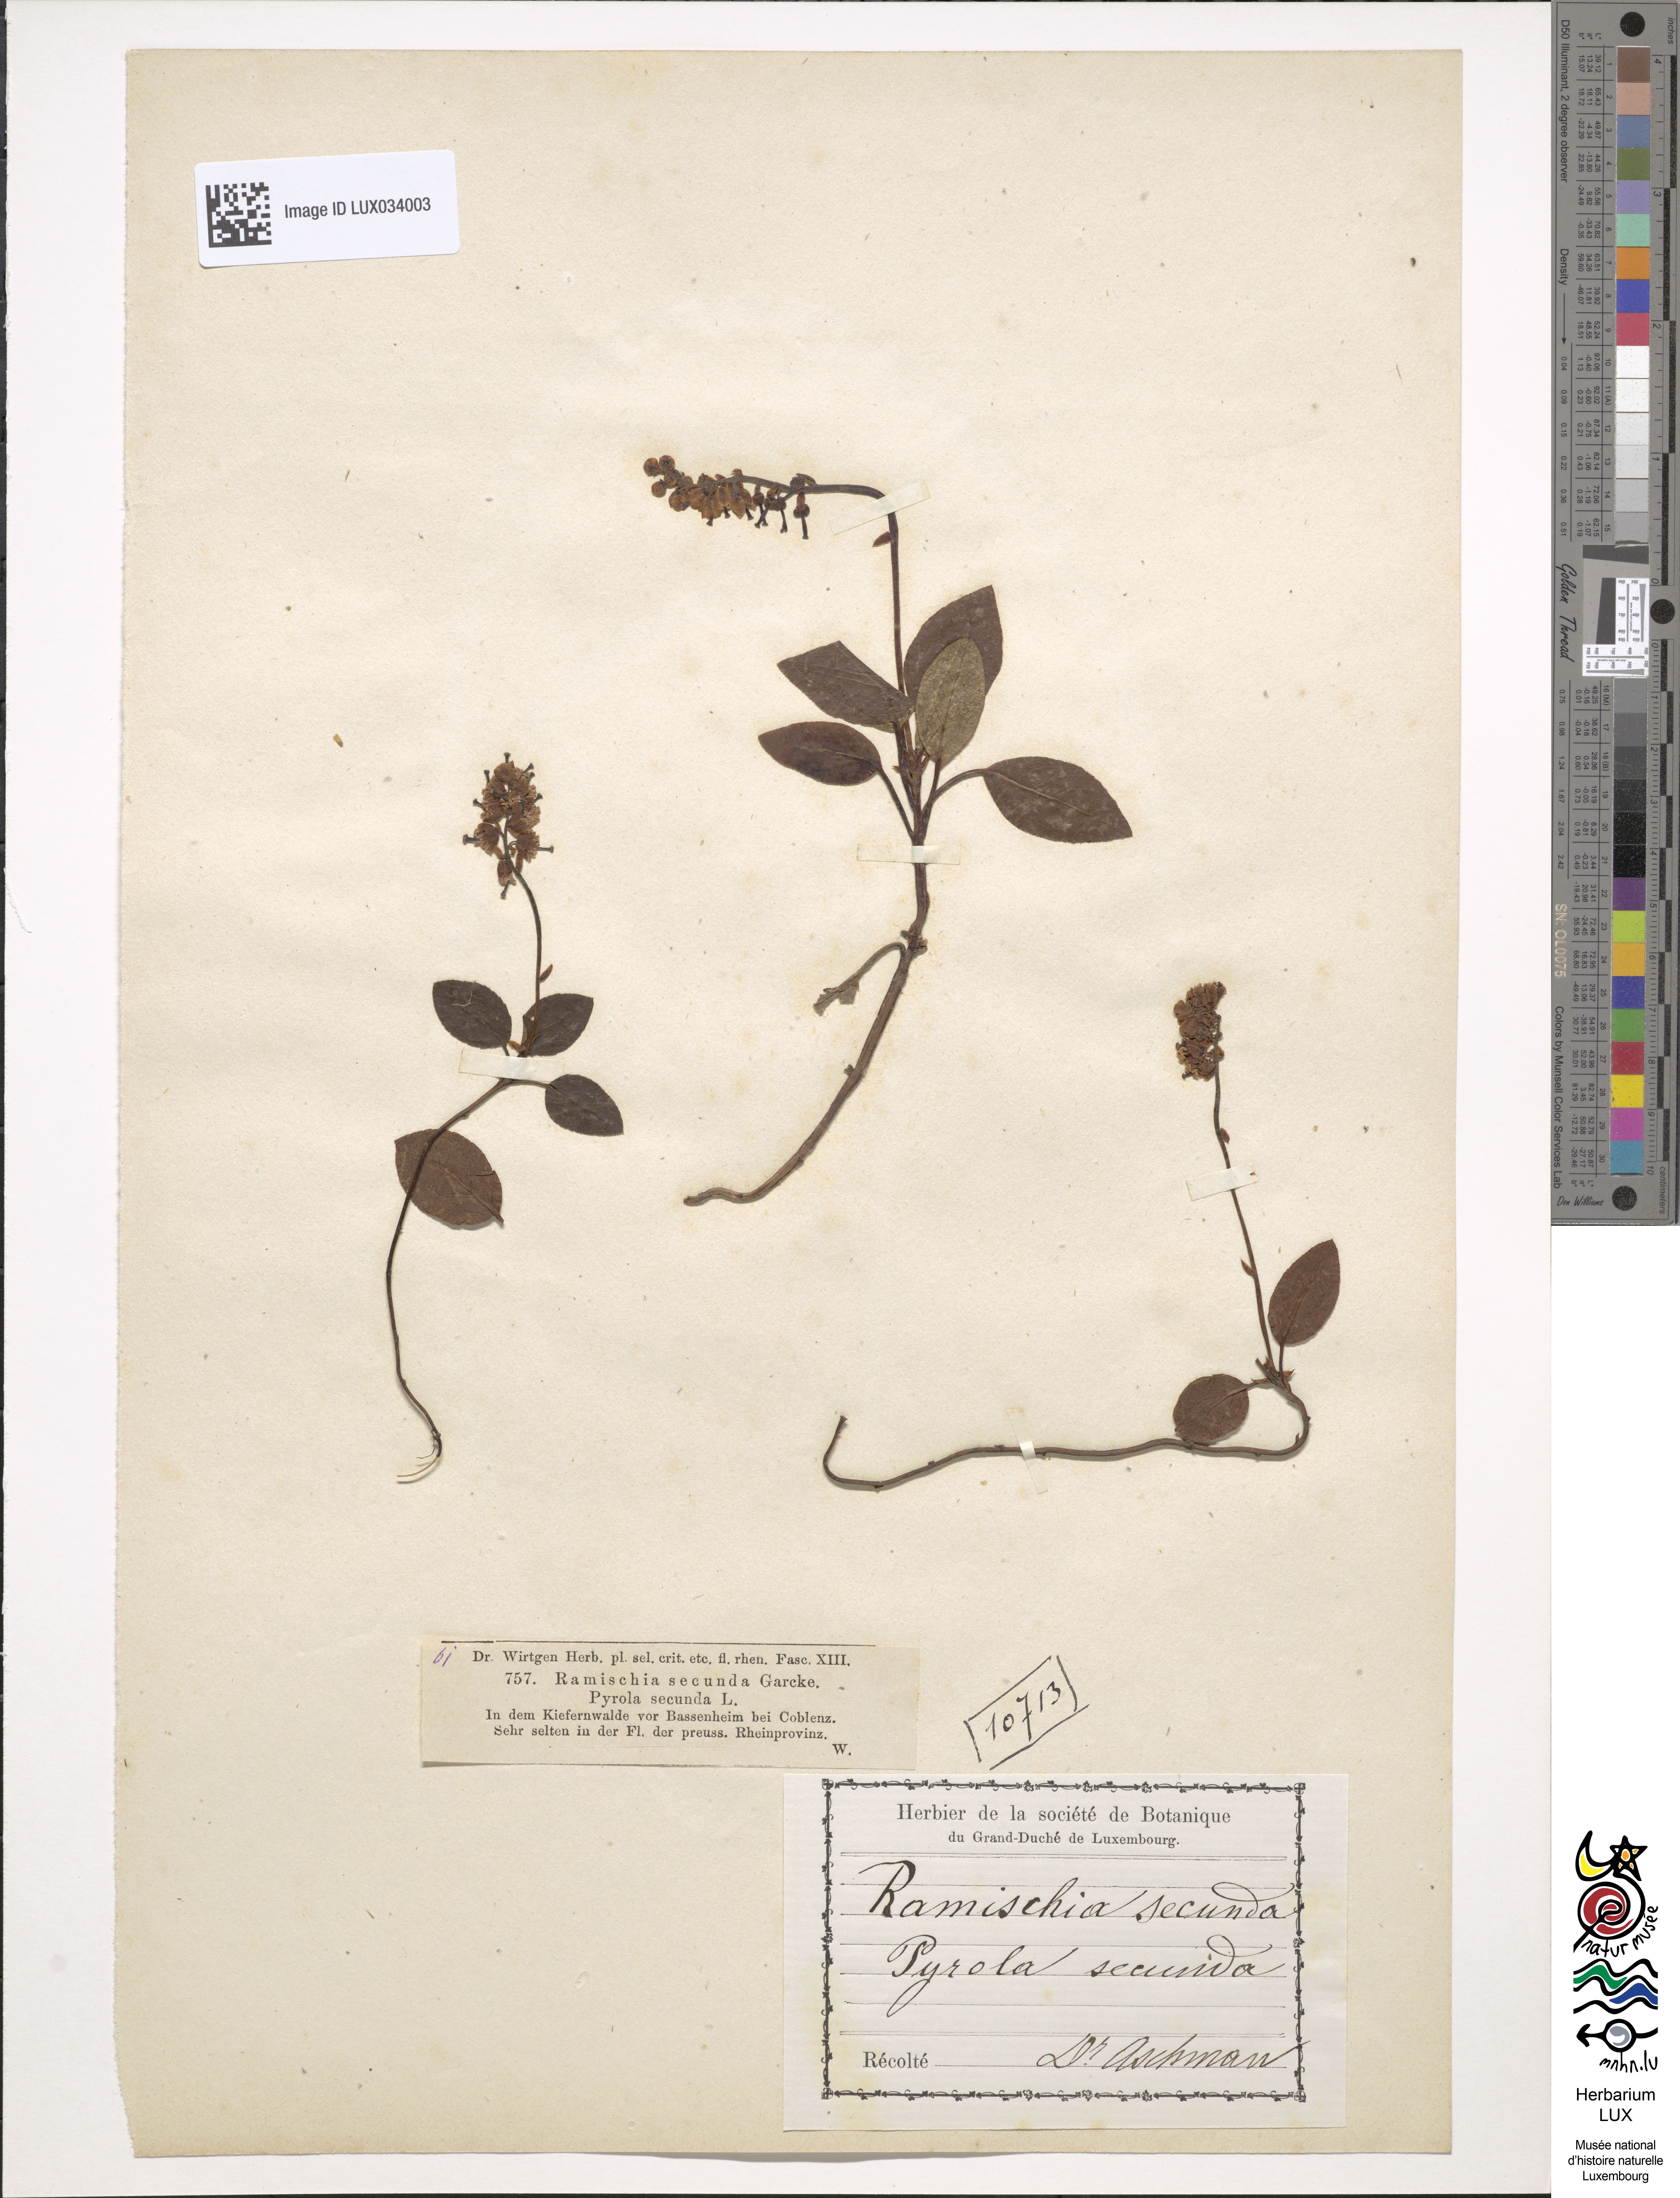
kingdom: Plantae
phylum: Tracheophyta
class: Magnoliopsida
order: Ericales
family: Ericaceae
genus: Orthilia
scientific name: Orthilia secunda
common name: One-sided orthilia
